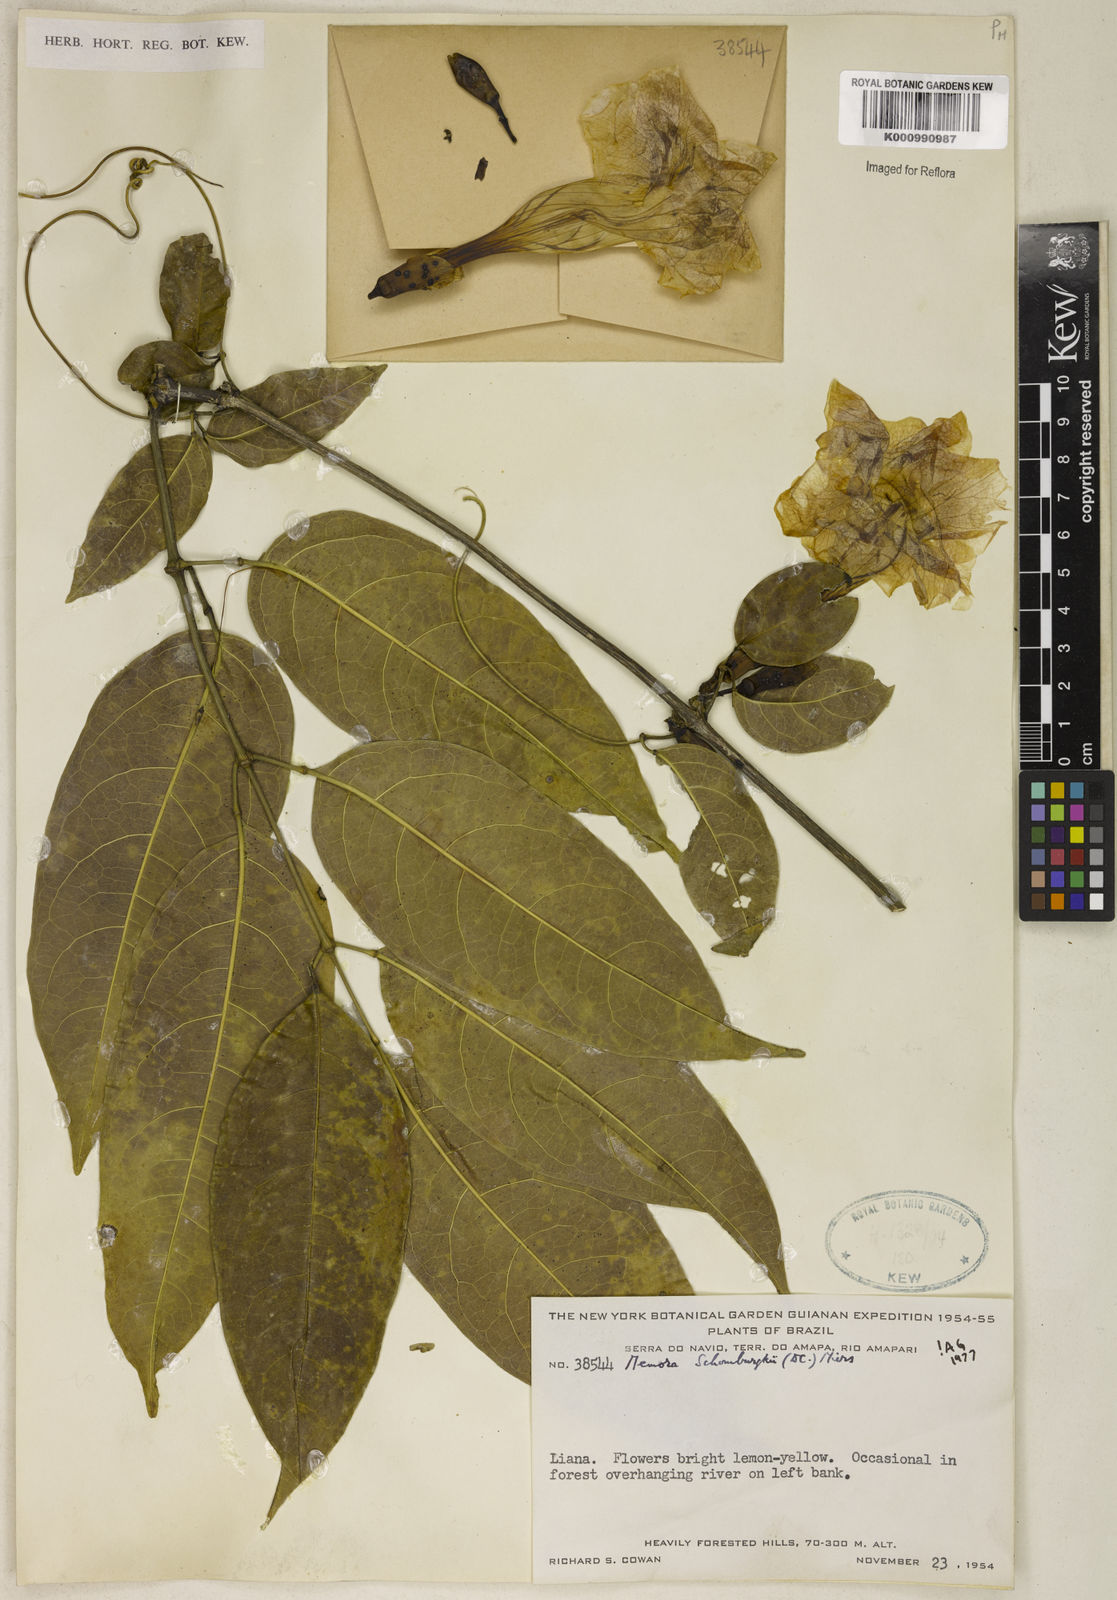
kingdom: Plantae
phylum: Tracheophyta
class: Magnoliopsida
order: Lamiales
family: Bignoniaceae
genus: Adenocalymma
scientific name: Adenocalymma schomburgkii
